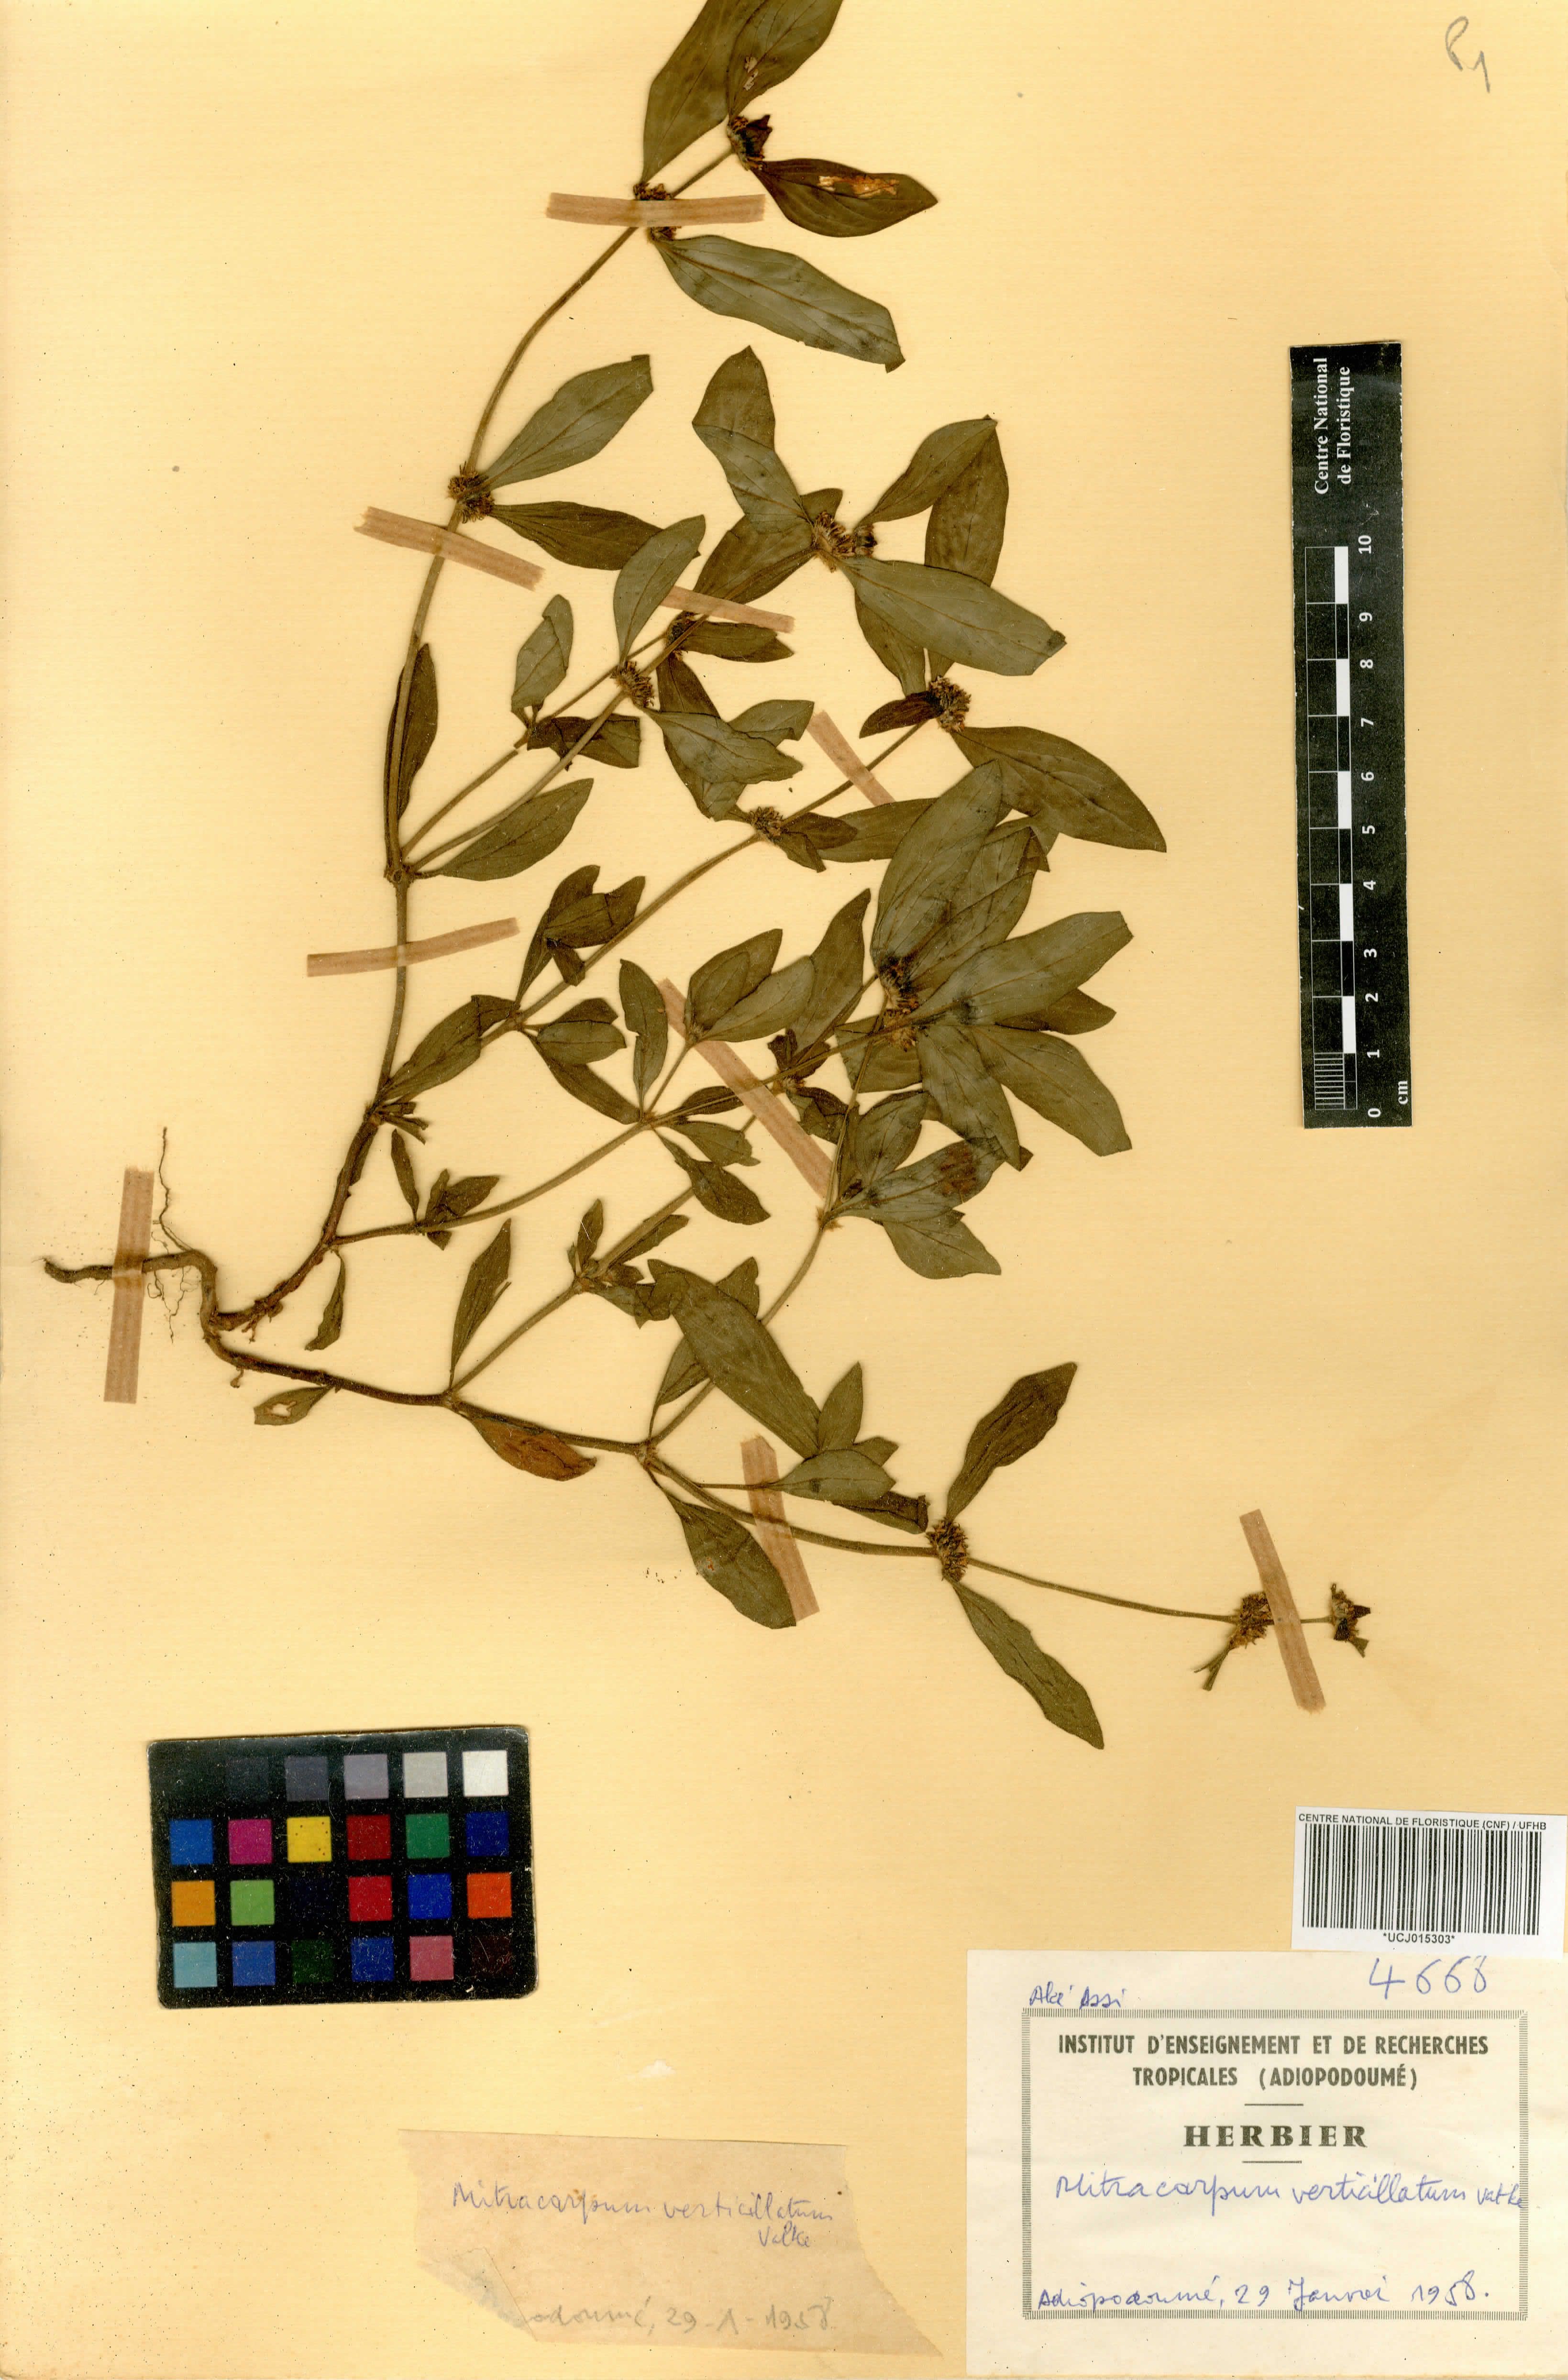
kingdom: Plantae
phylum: Tracheophyta
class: Magnoliopsida
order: Gentianales
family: Rubiaceae
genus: Mitracarpus
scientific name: Mitracarpus hirtus
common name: Tropical girdlepod
